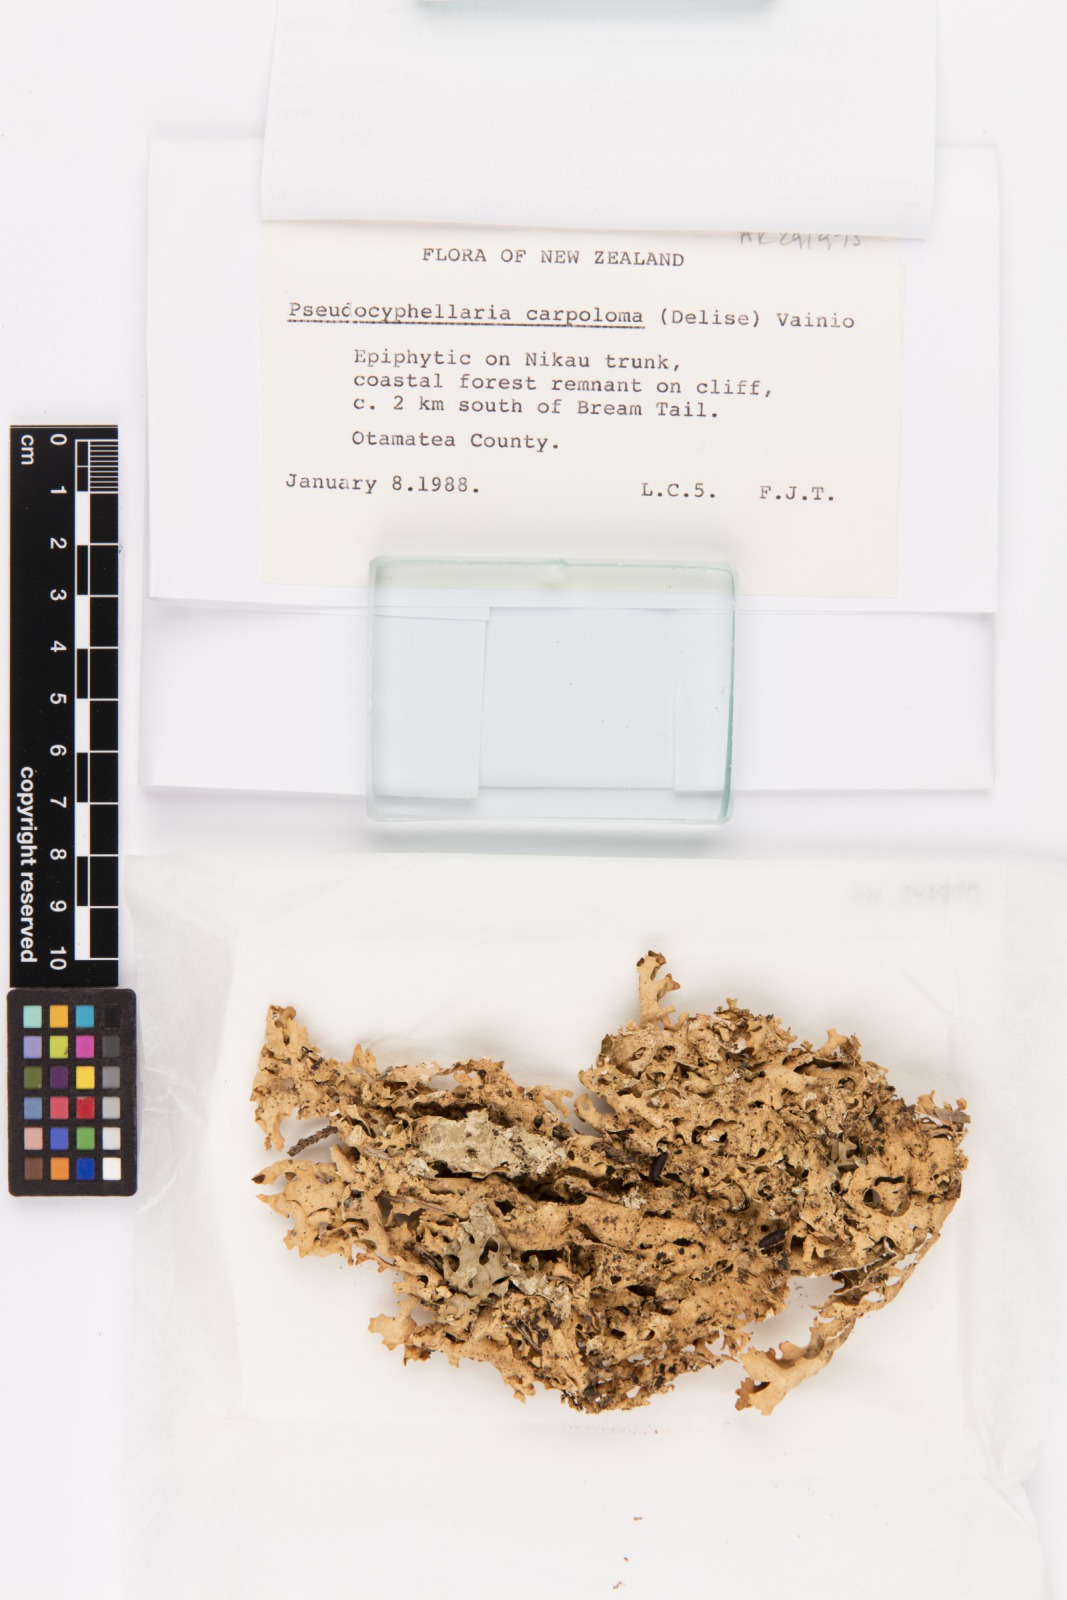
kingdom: Fungi
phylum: Ascomycota
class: Lecanoromycetes
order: Peltigerales
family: Lobariaceae
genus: Pseudocyphellaria
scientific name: Pseudocyphellaria carpoloma
